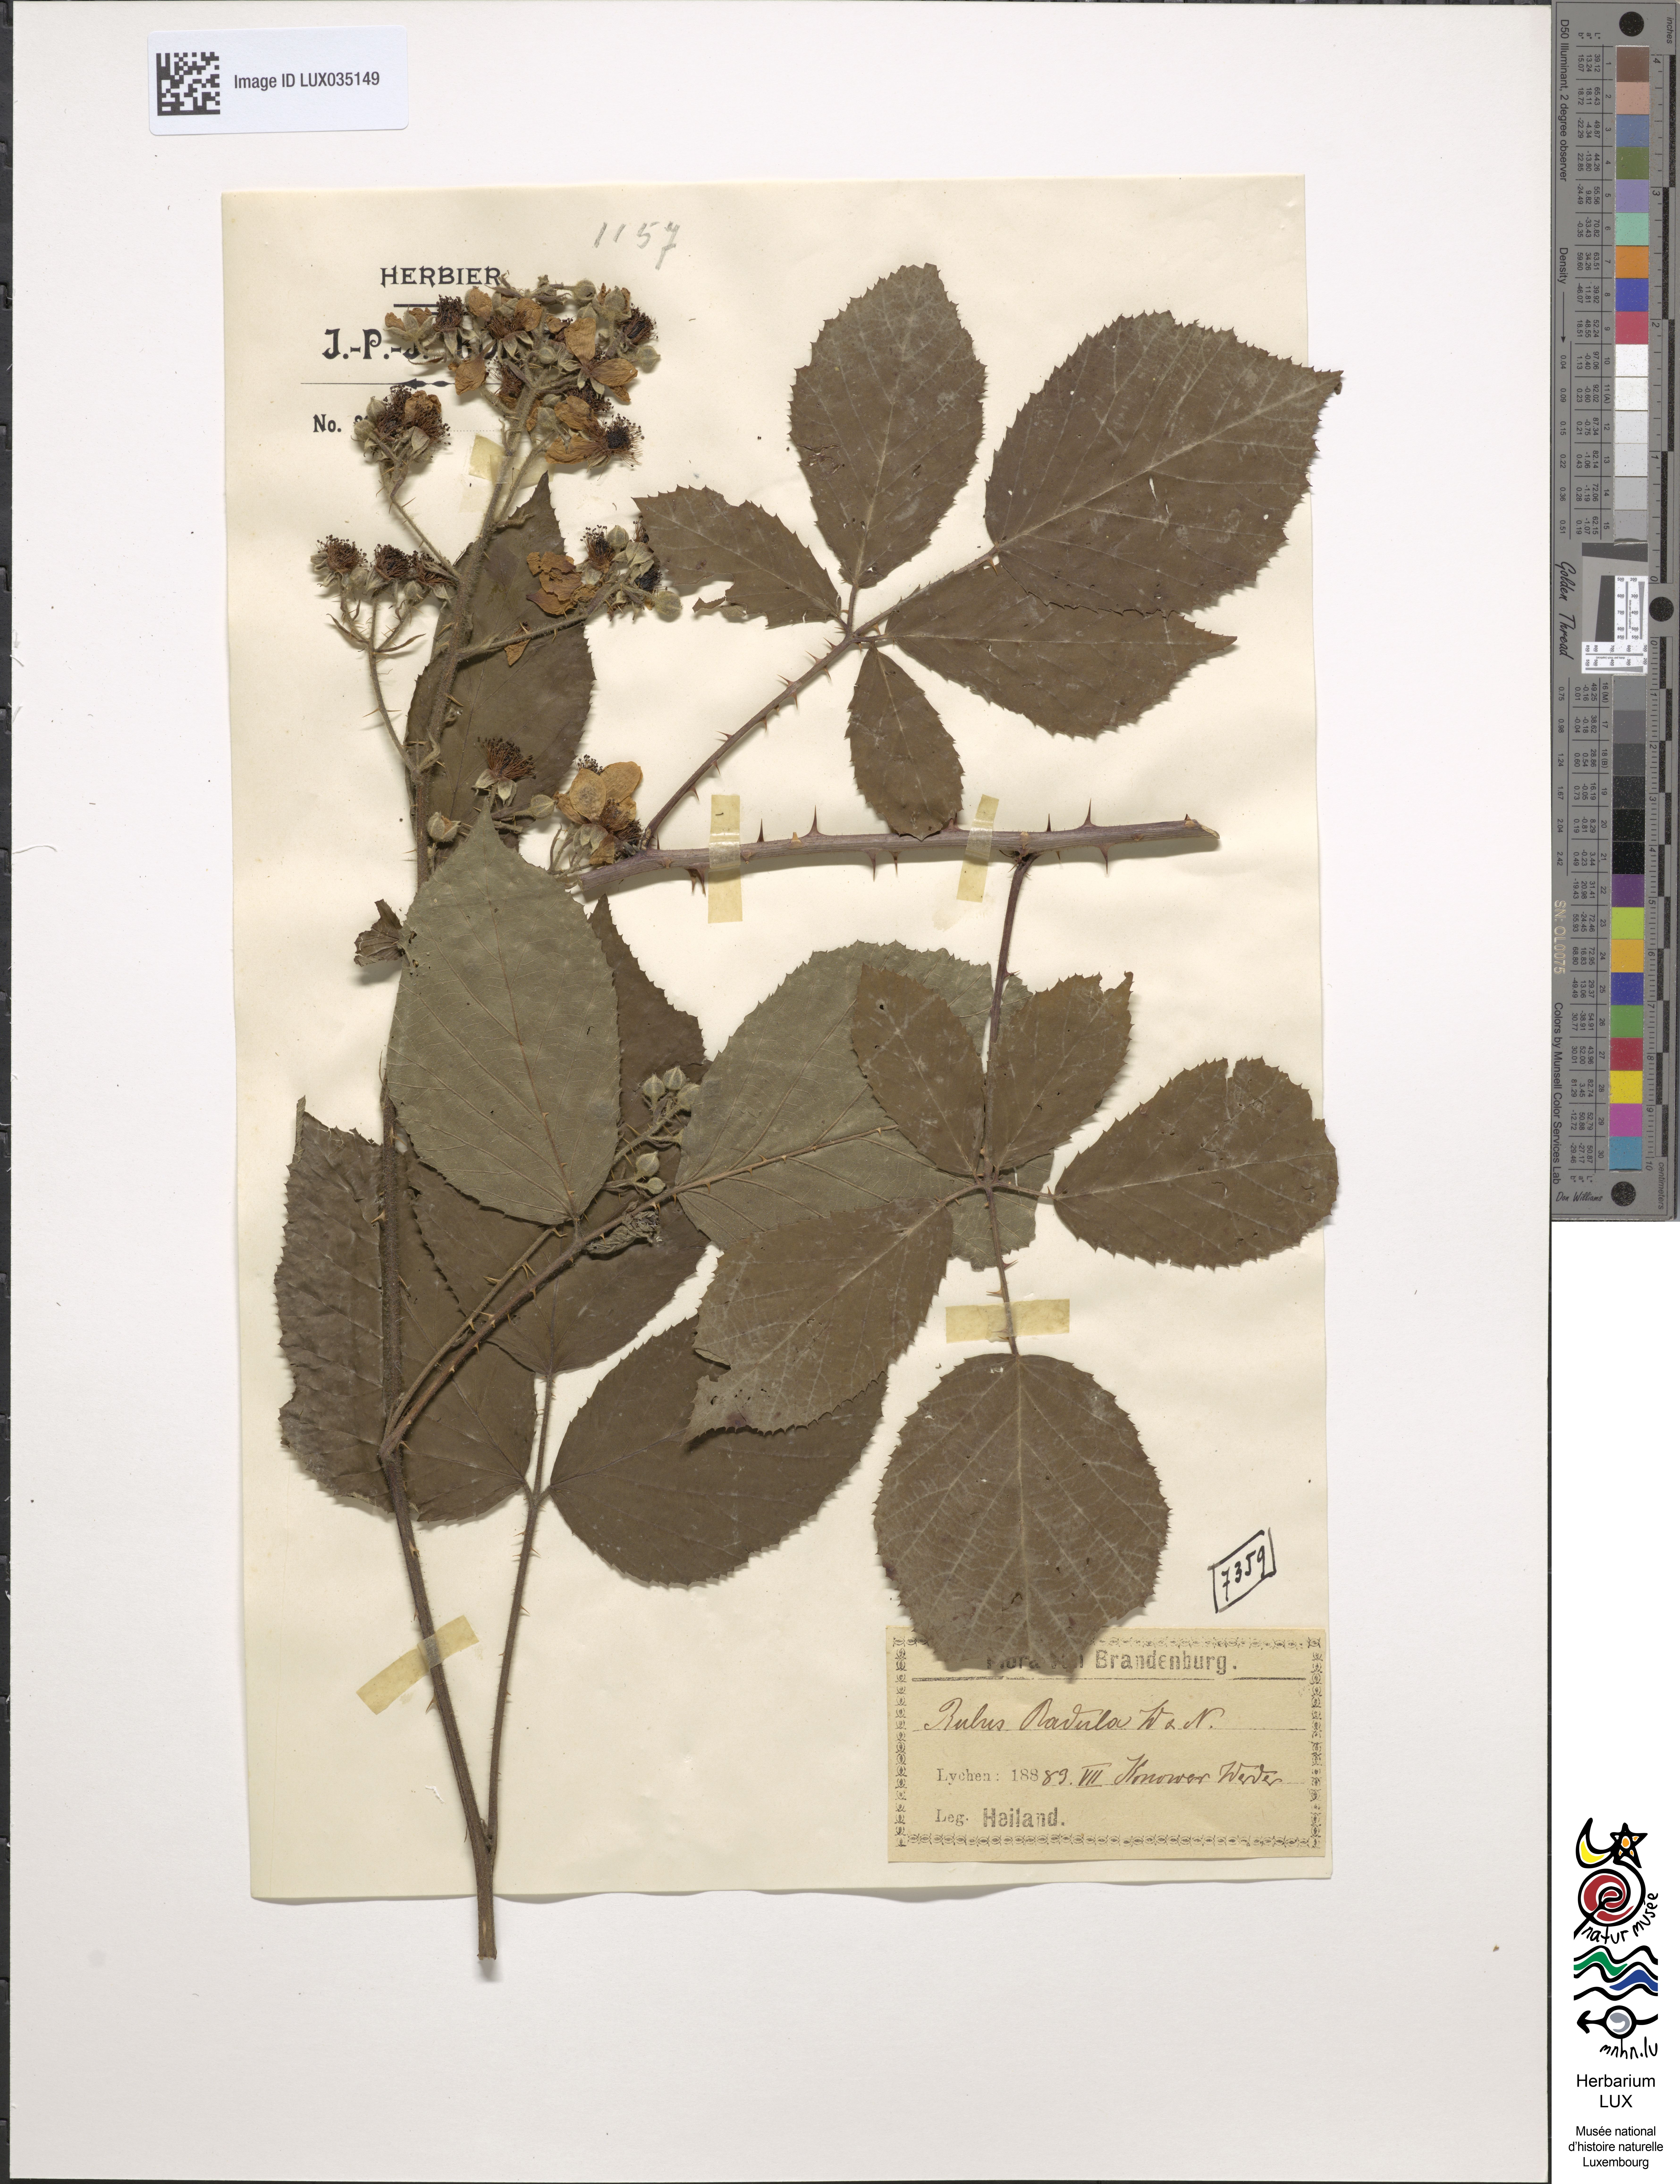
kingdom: Plantae
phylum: Tracheophyta
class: Magnoliopsida
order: Rosales
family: Rosaceae
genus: Rubus
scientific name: Rubus radula
